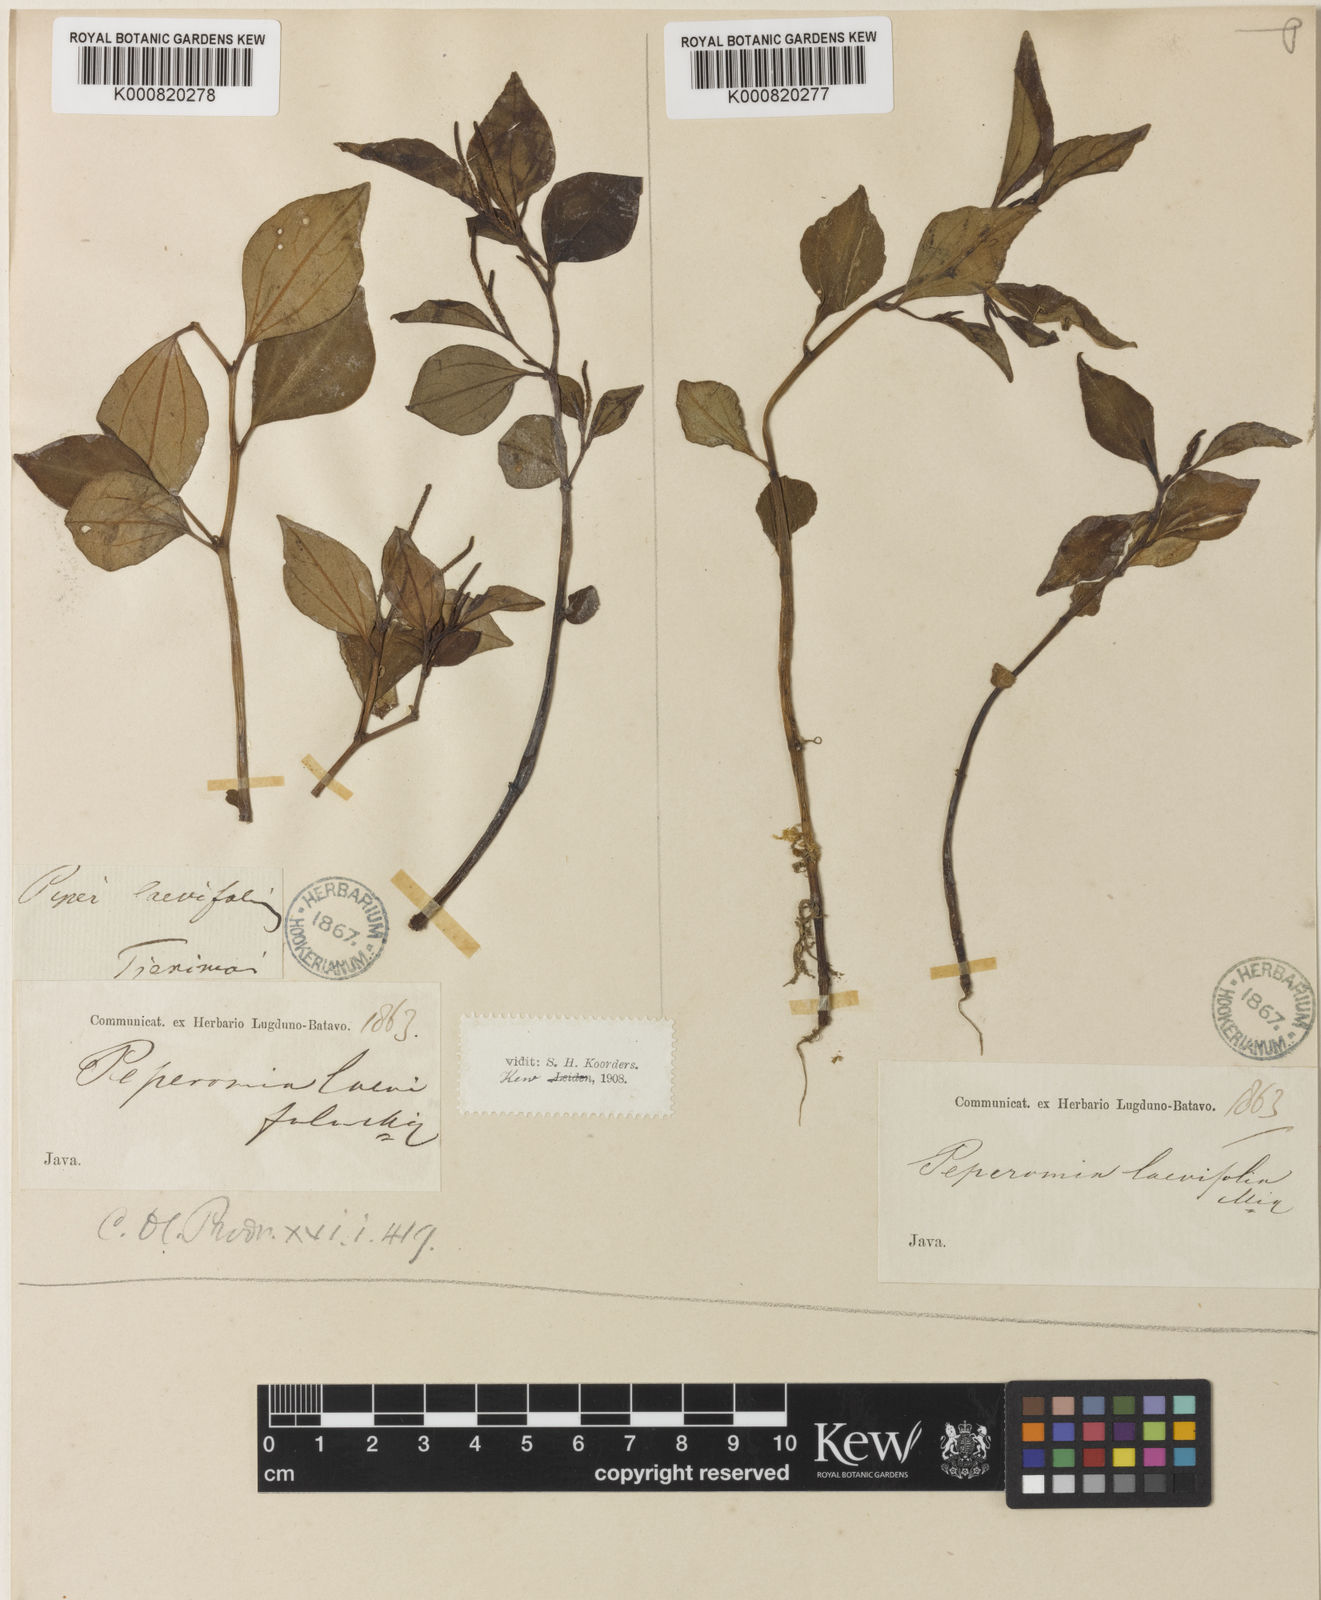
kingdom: Plantae
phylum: Tracheophyta
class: Magnoliopsida
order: Piperales
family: Piperaceae
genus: Peperomia
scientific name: Peperomia laevifolia
